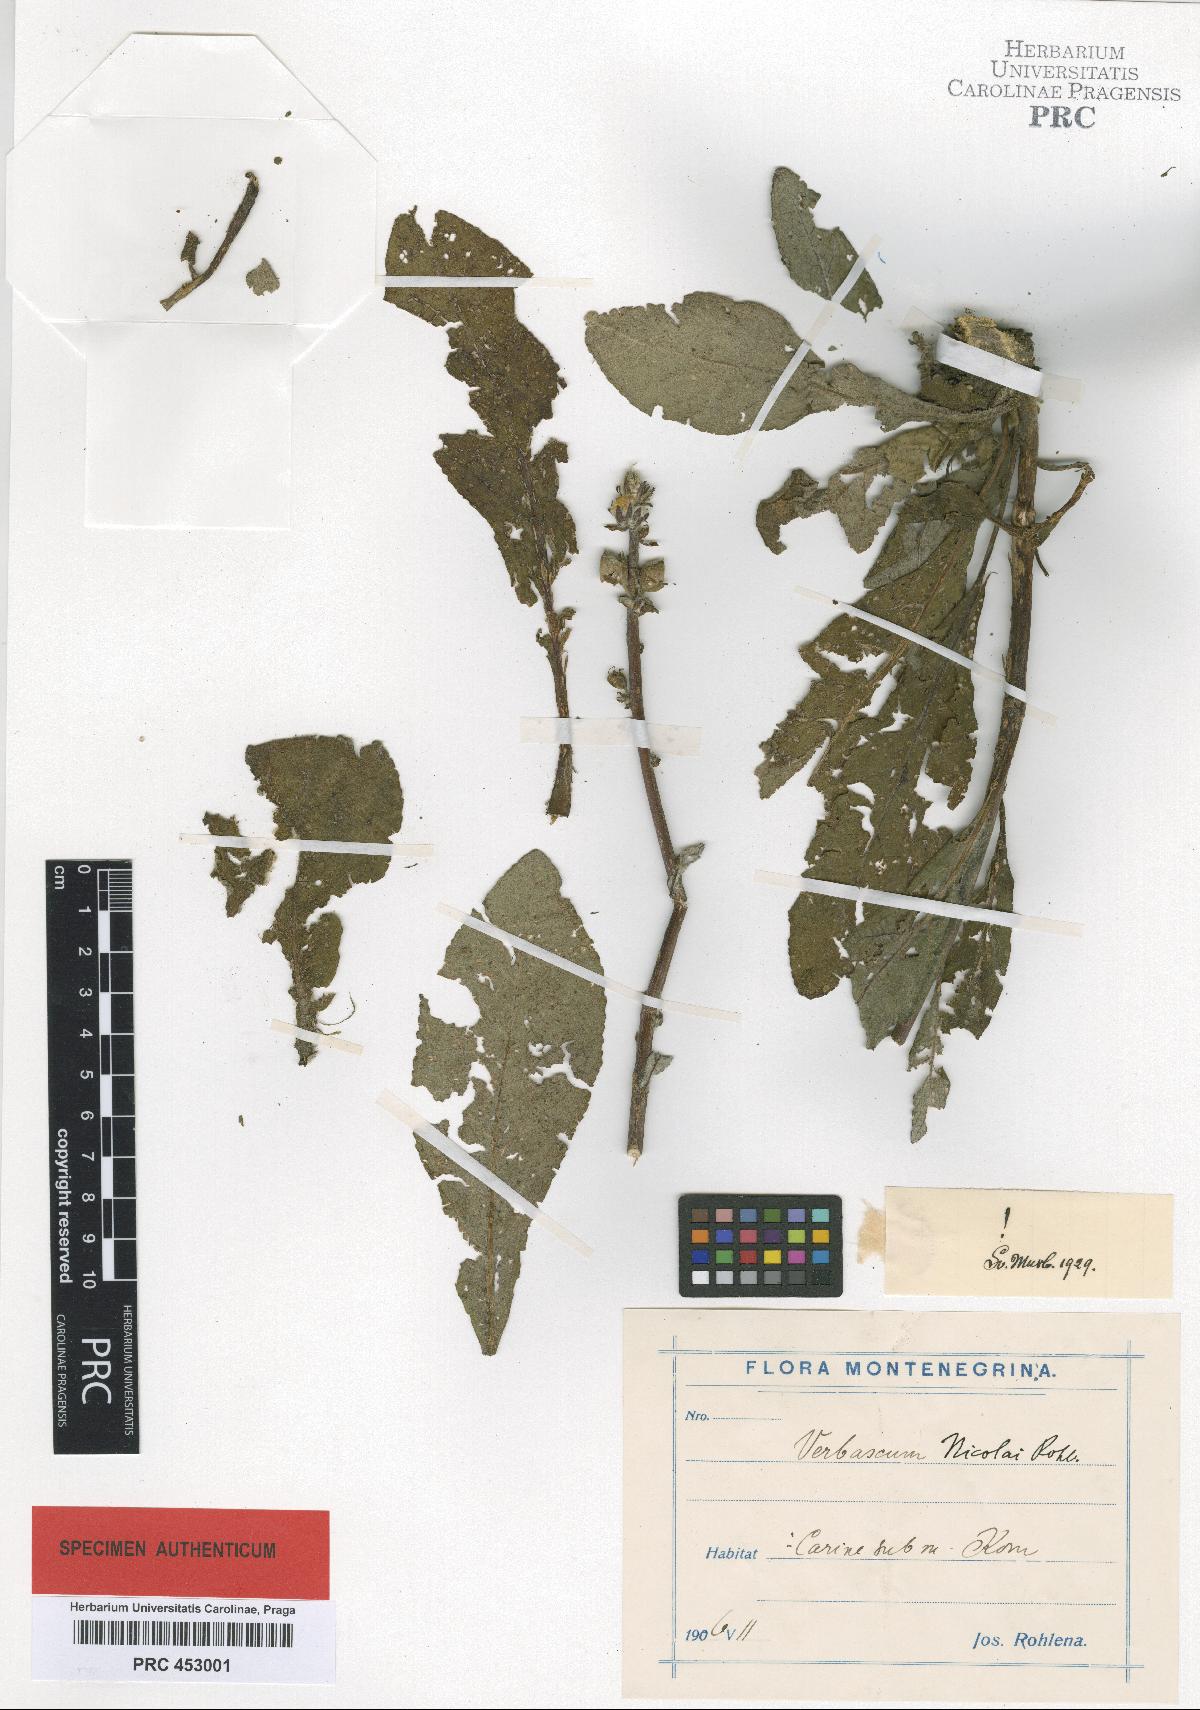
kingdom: Plantae
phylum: Tracheophyta
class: Magnoliopsida
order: Lamiales
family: Scrophulariaceae
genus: Verbascum
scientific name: Verbascum nicolai
